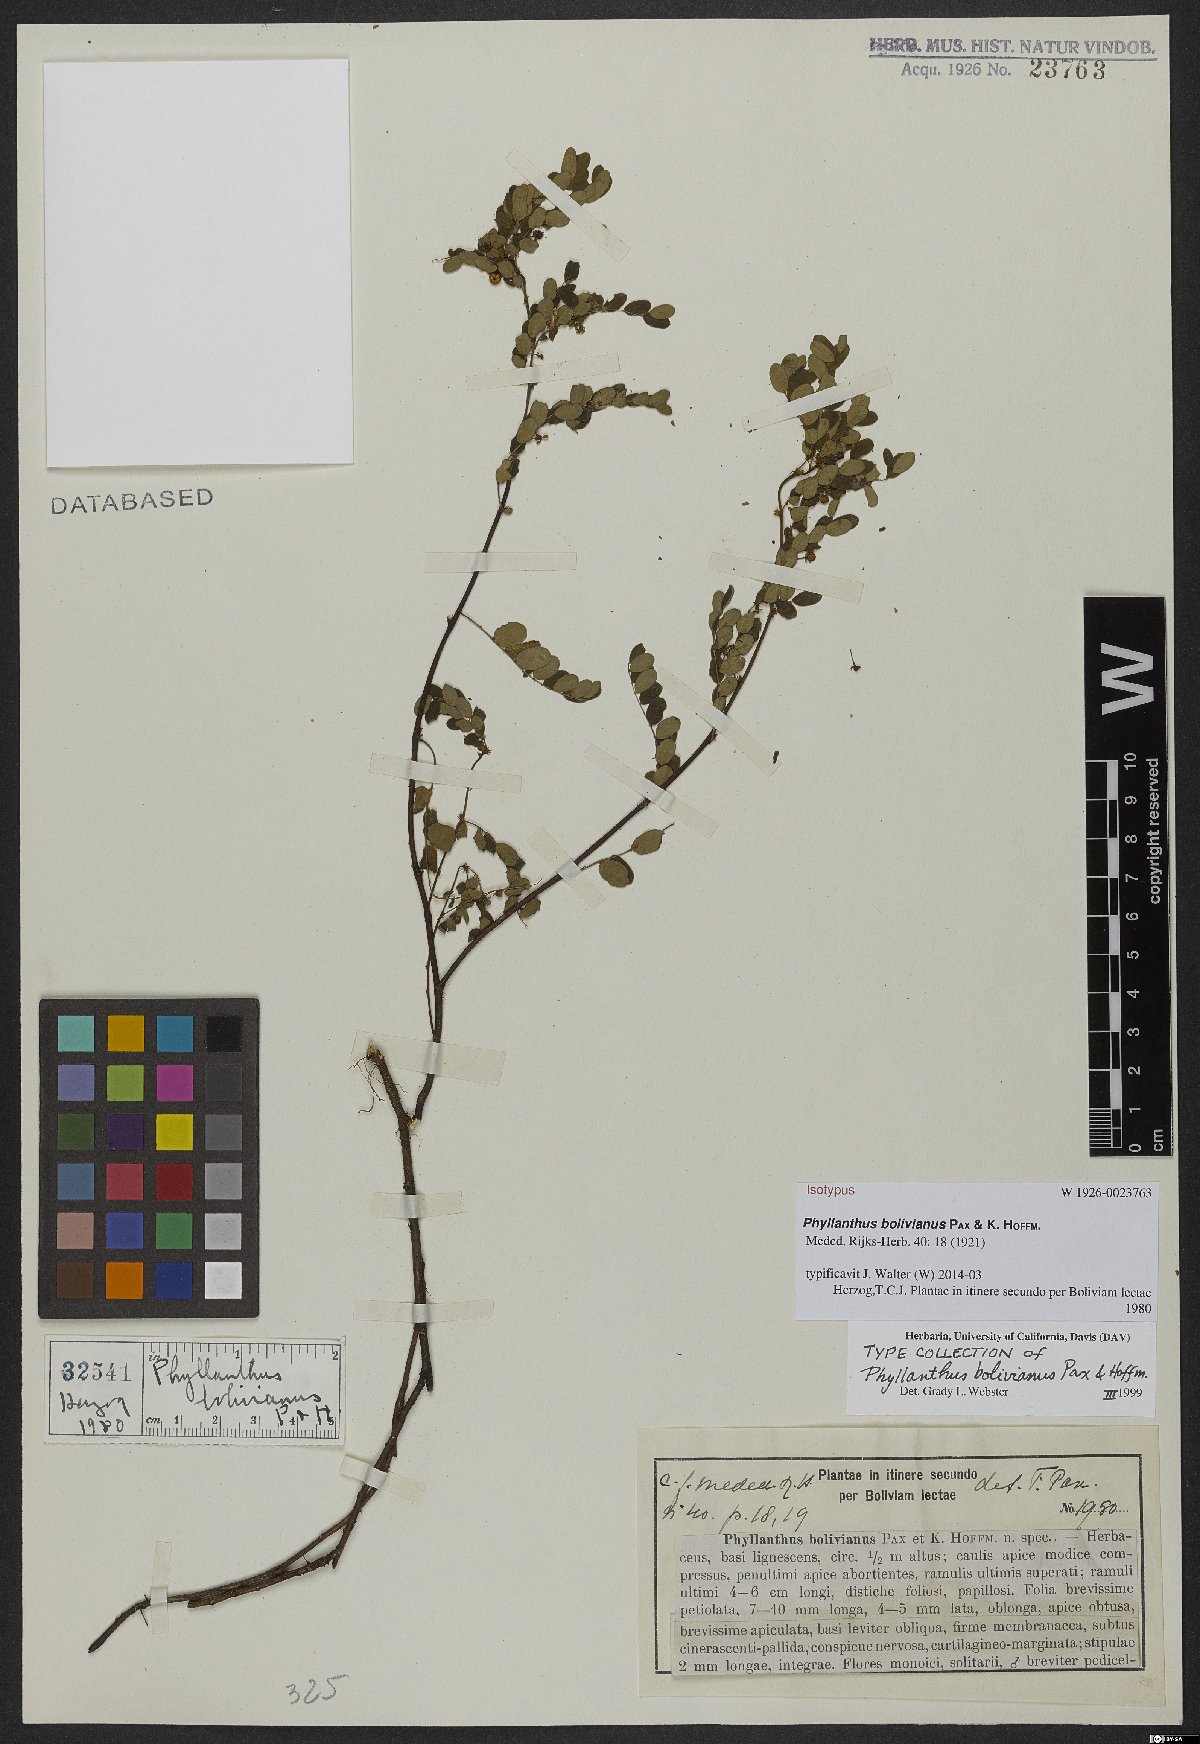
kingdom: Plantae
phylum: Tracheophyta
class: Magnoliopsida
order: Malpighiales
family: Phyllanthaceae
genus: Phyllanthus
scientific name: Phyllanthus bolivianus
